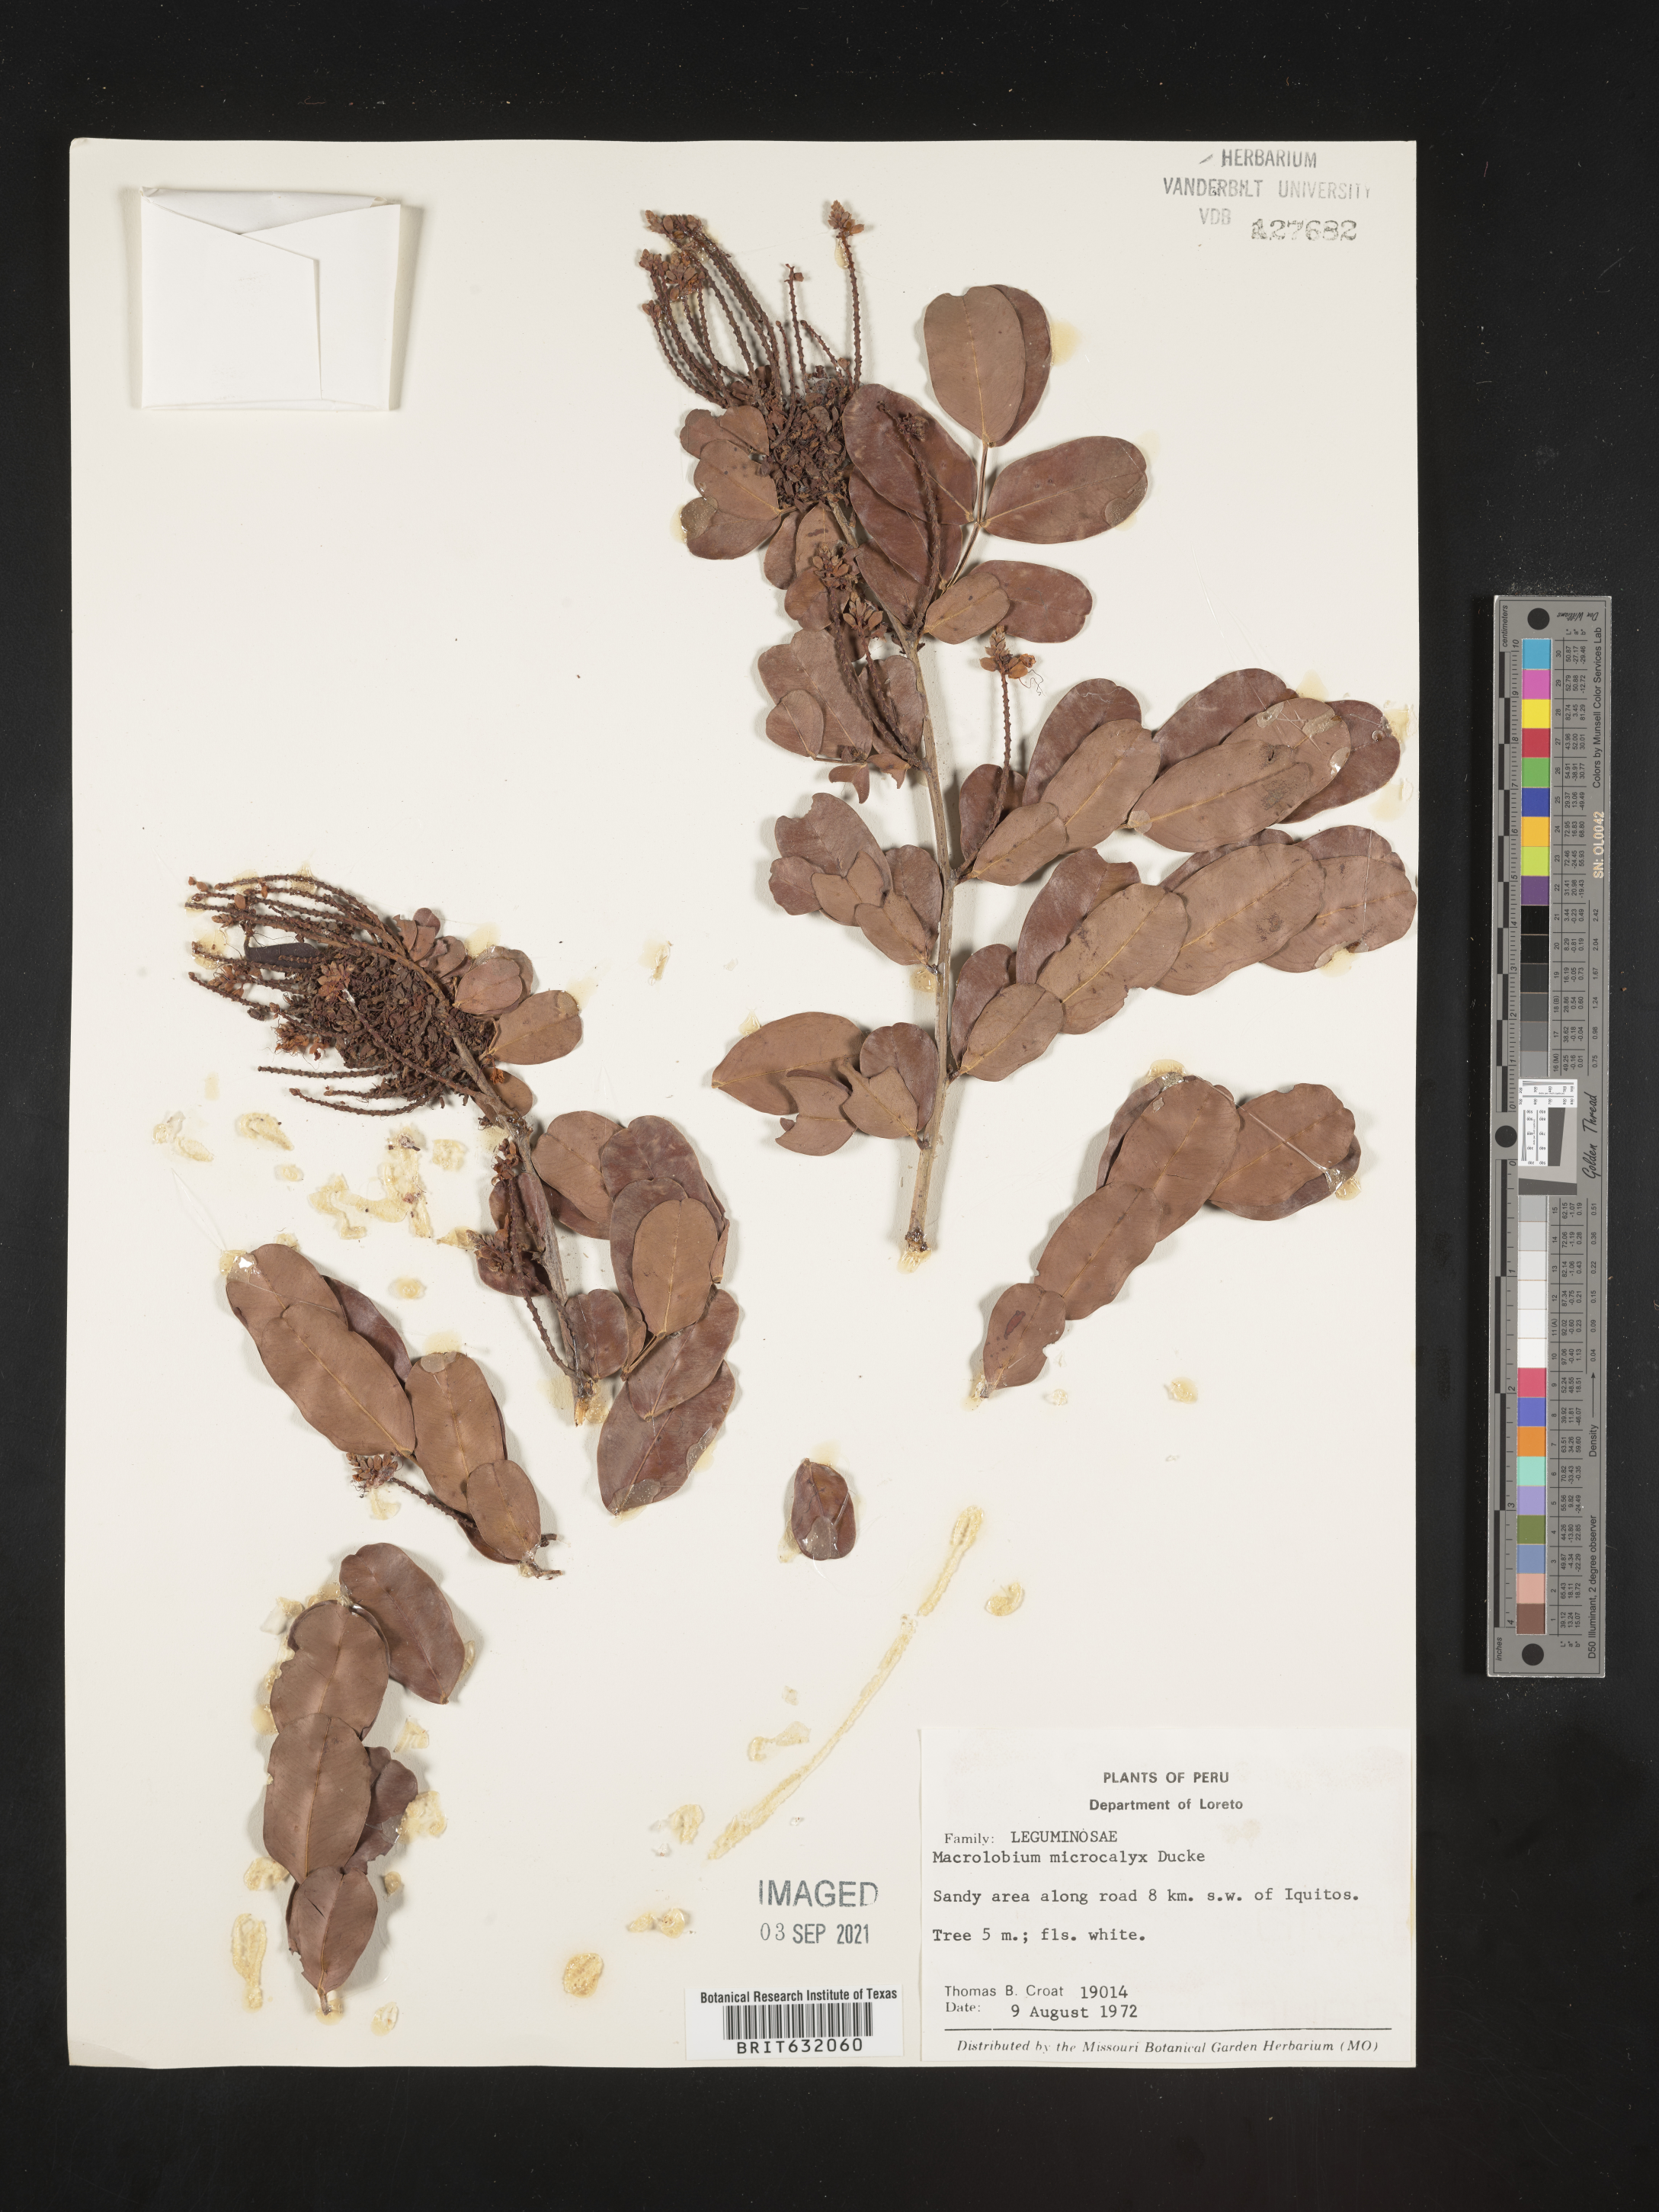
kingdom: Plantae
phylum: Tracheophyta
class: Magnoliopsida
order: Fabales
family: Fabaceae
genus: Macrolobium
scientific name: Macrolobium
